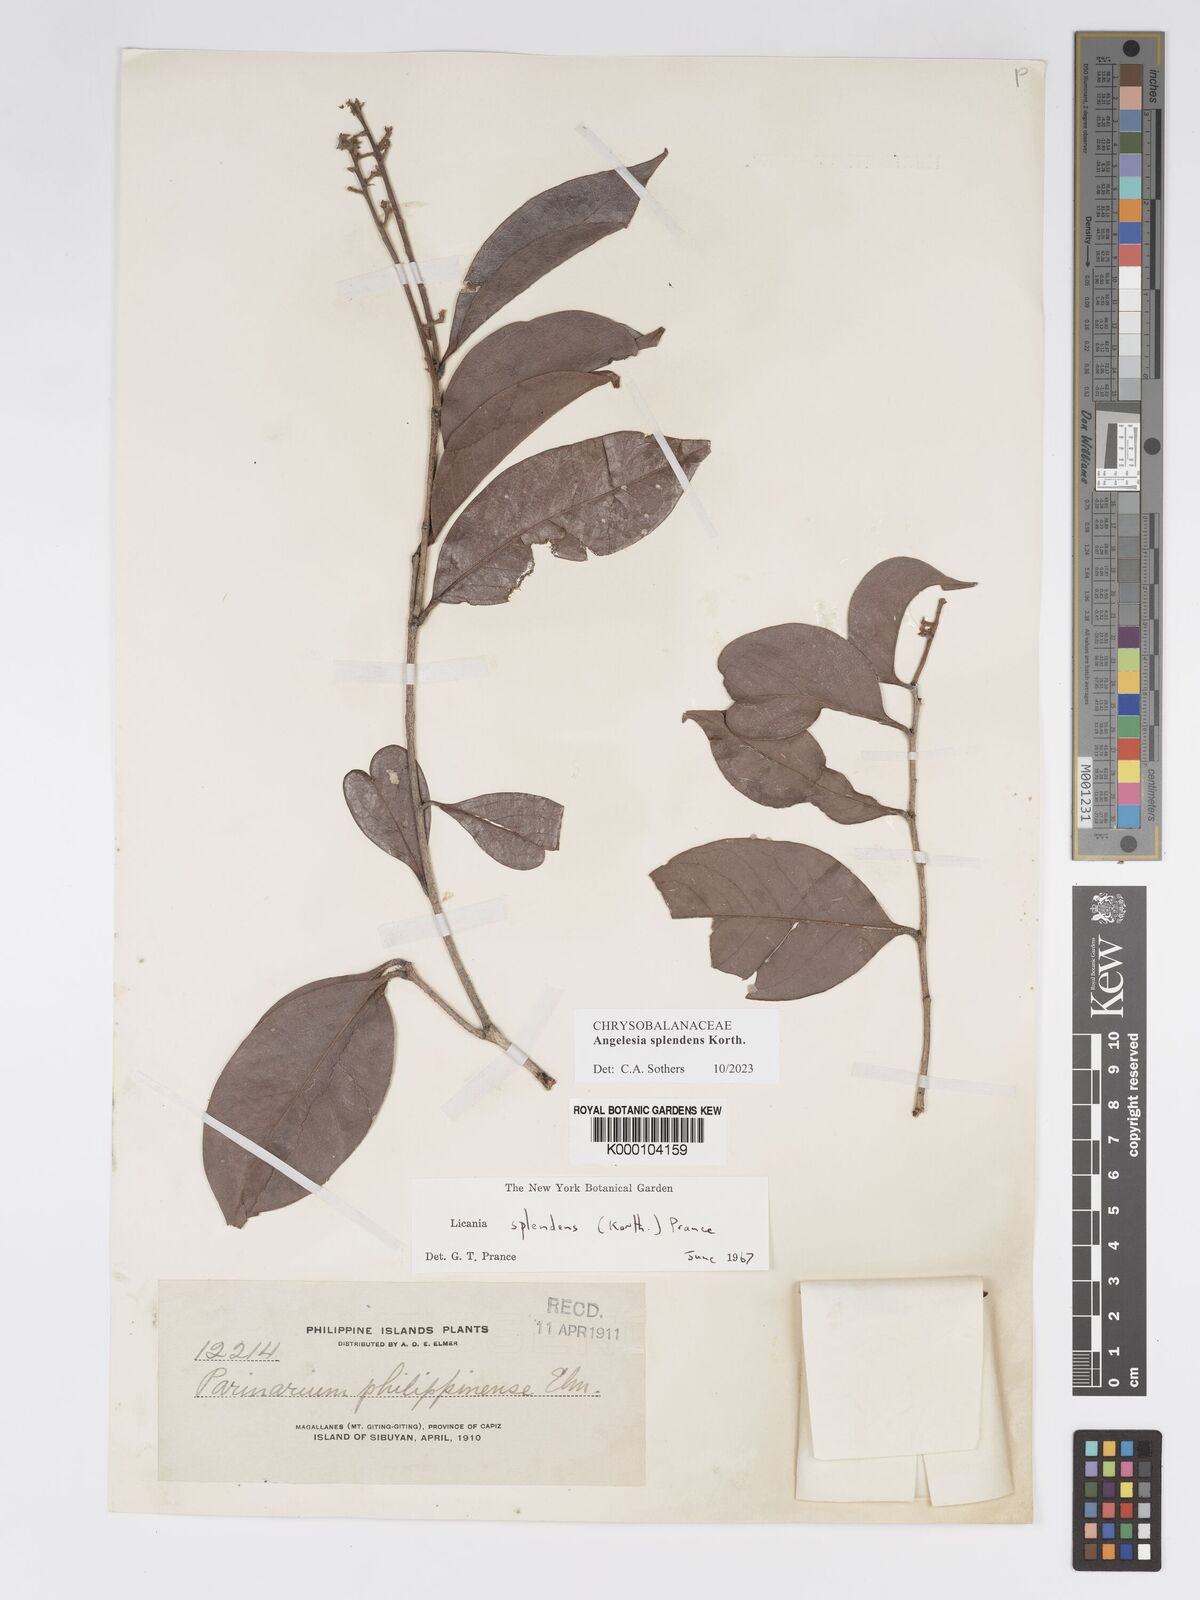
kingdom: Plantae
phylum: Tracheophyta
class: Magnoliopsida
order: Malpighiales
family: Chrysobalanaceae
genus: Angelesia
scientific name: Angelesia splendens
